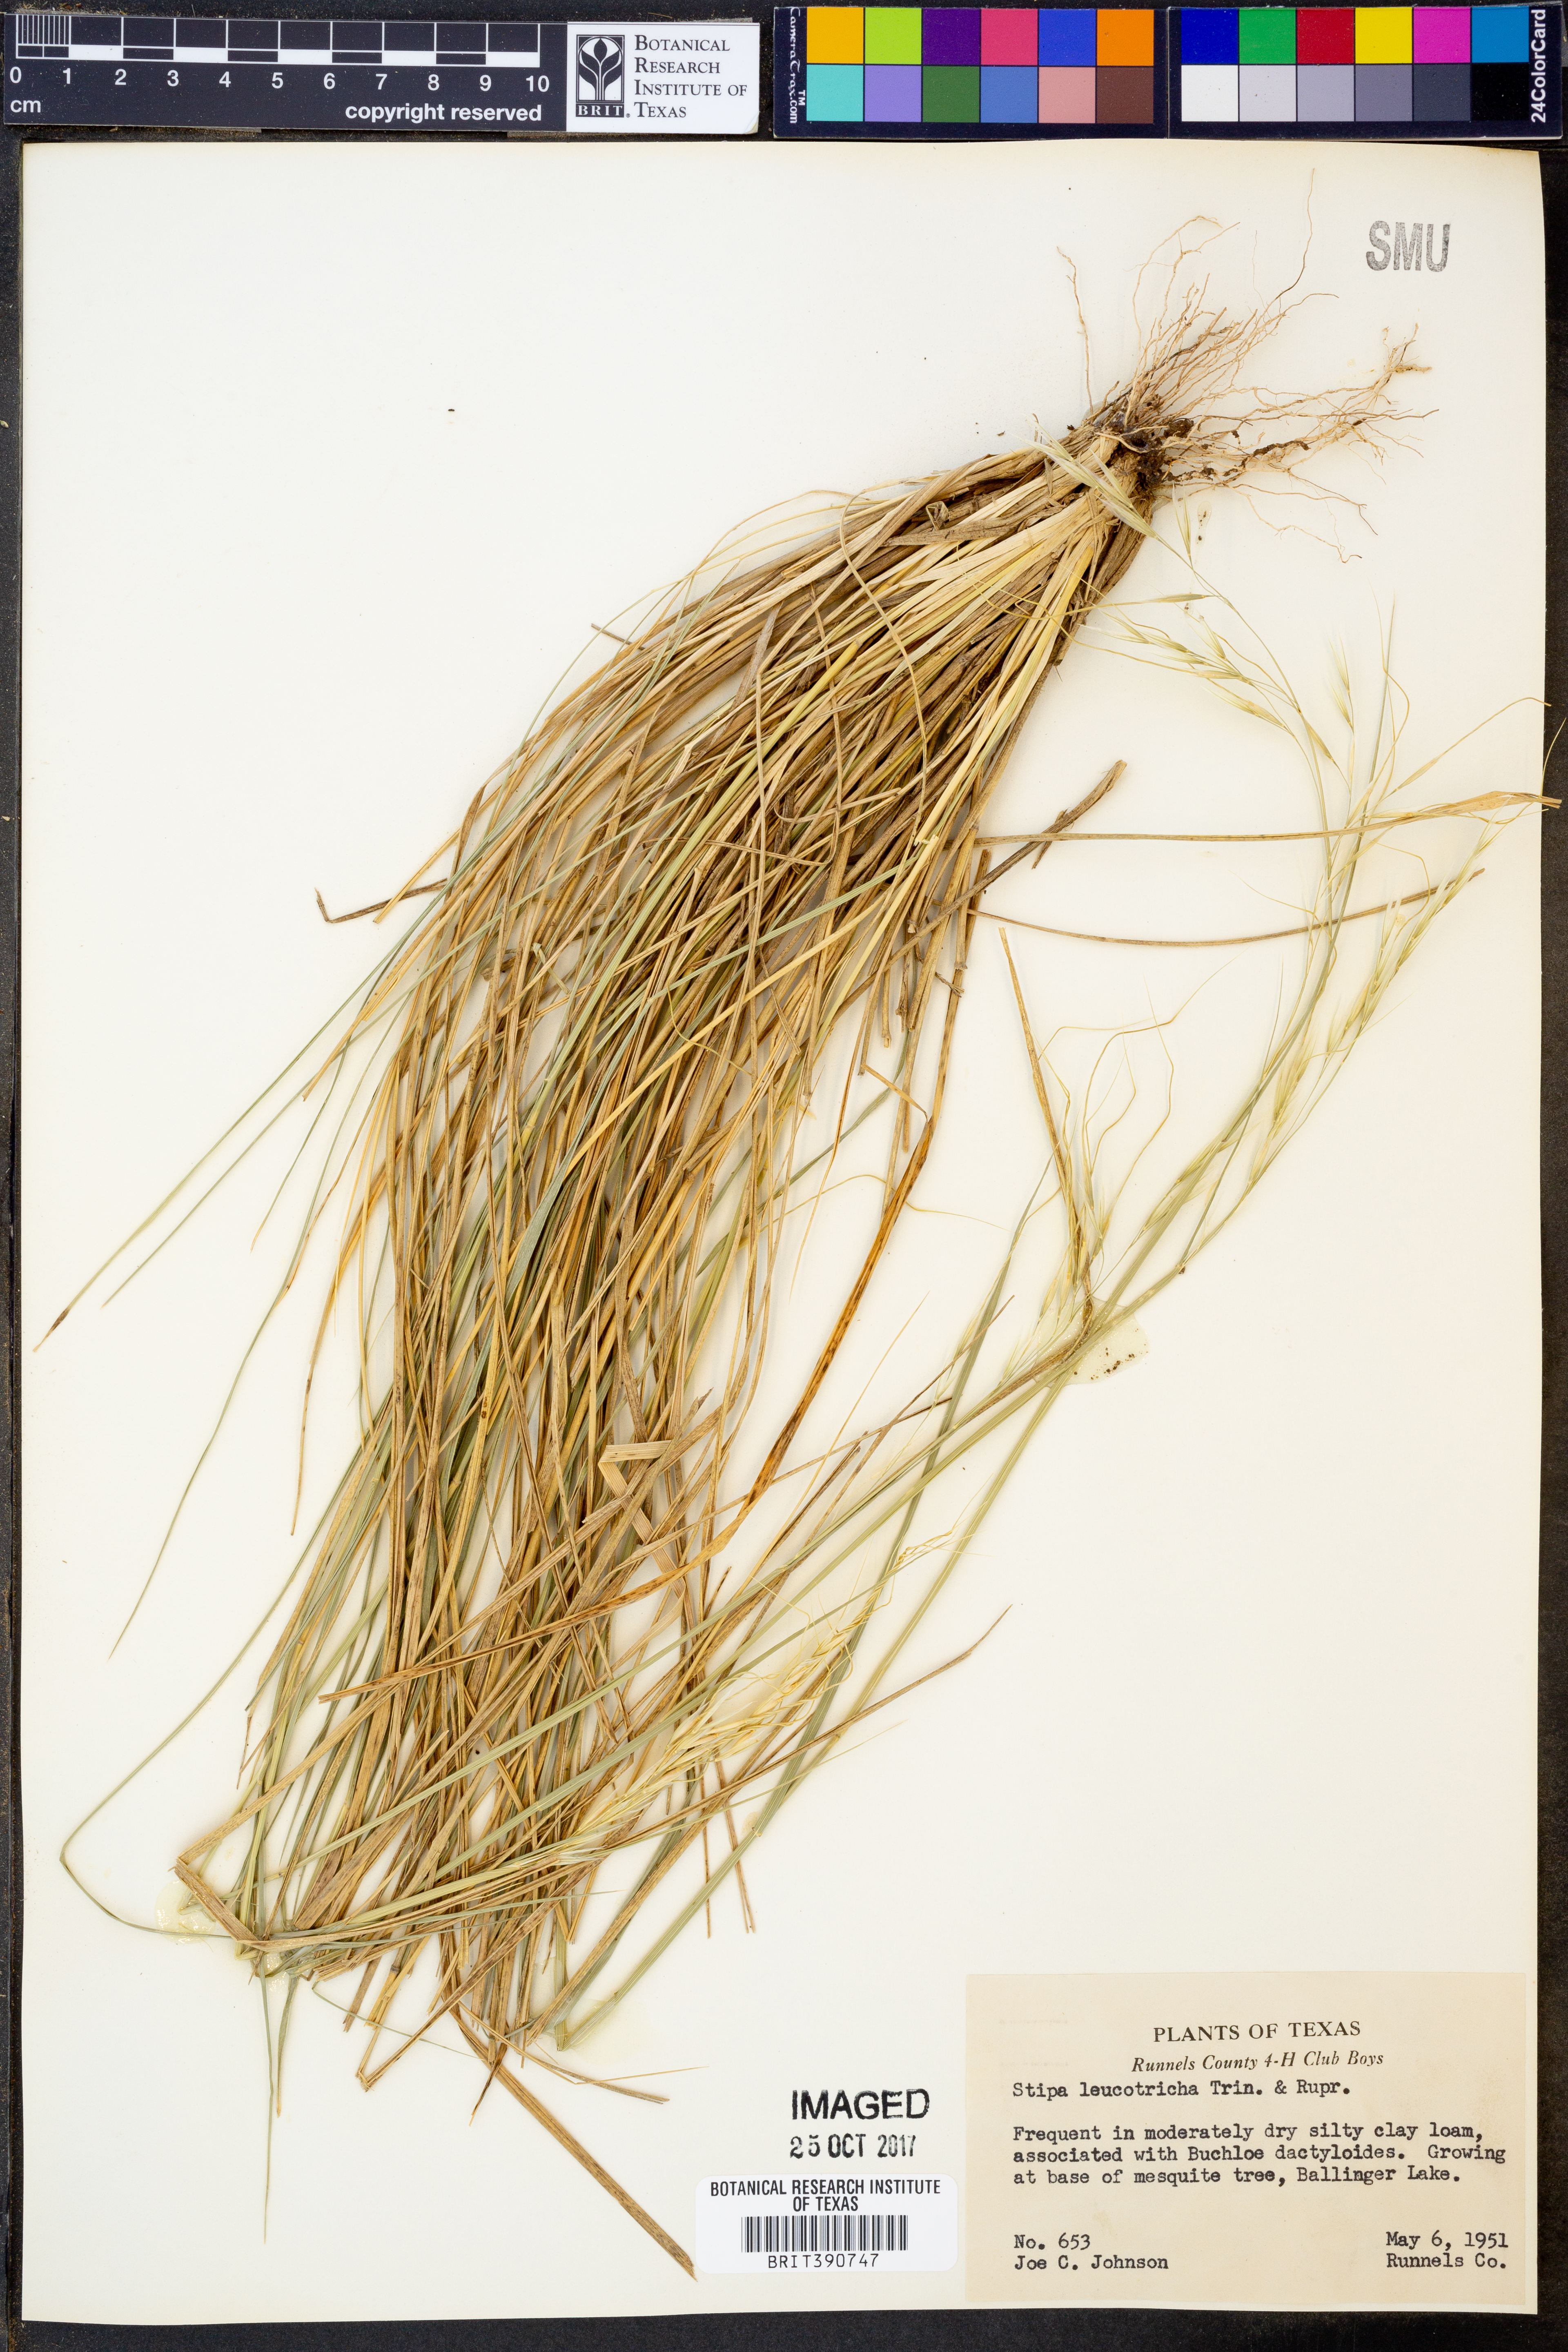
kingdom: Plantae
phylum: Tracheophyta
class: Liliopsida
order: Poales
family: Poaceae
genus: Nassella
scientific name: Nassella leucotricha
